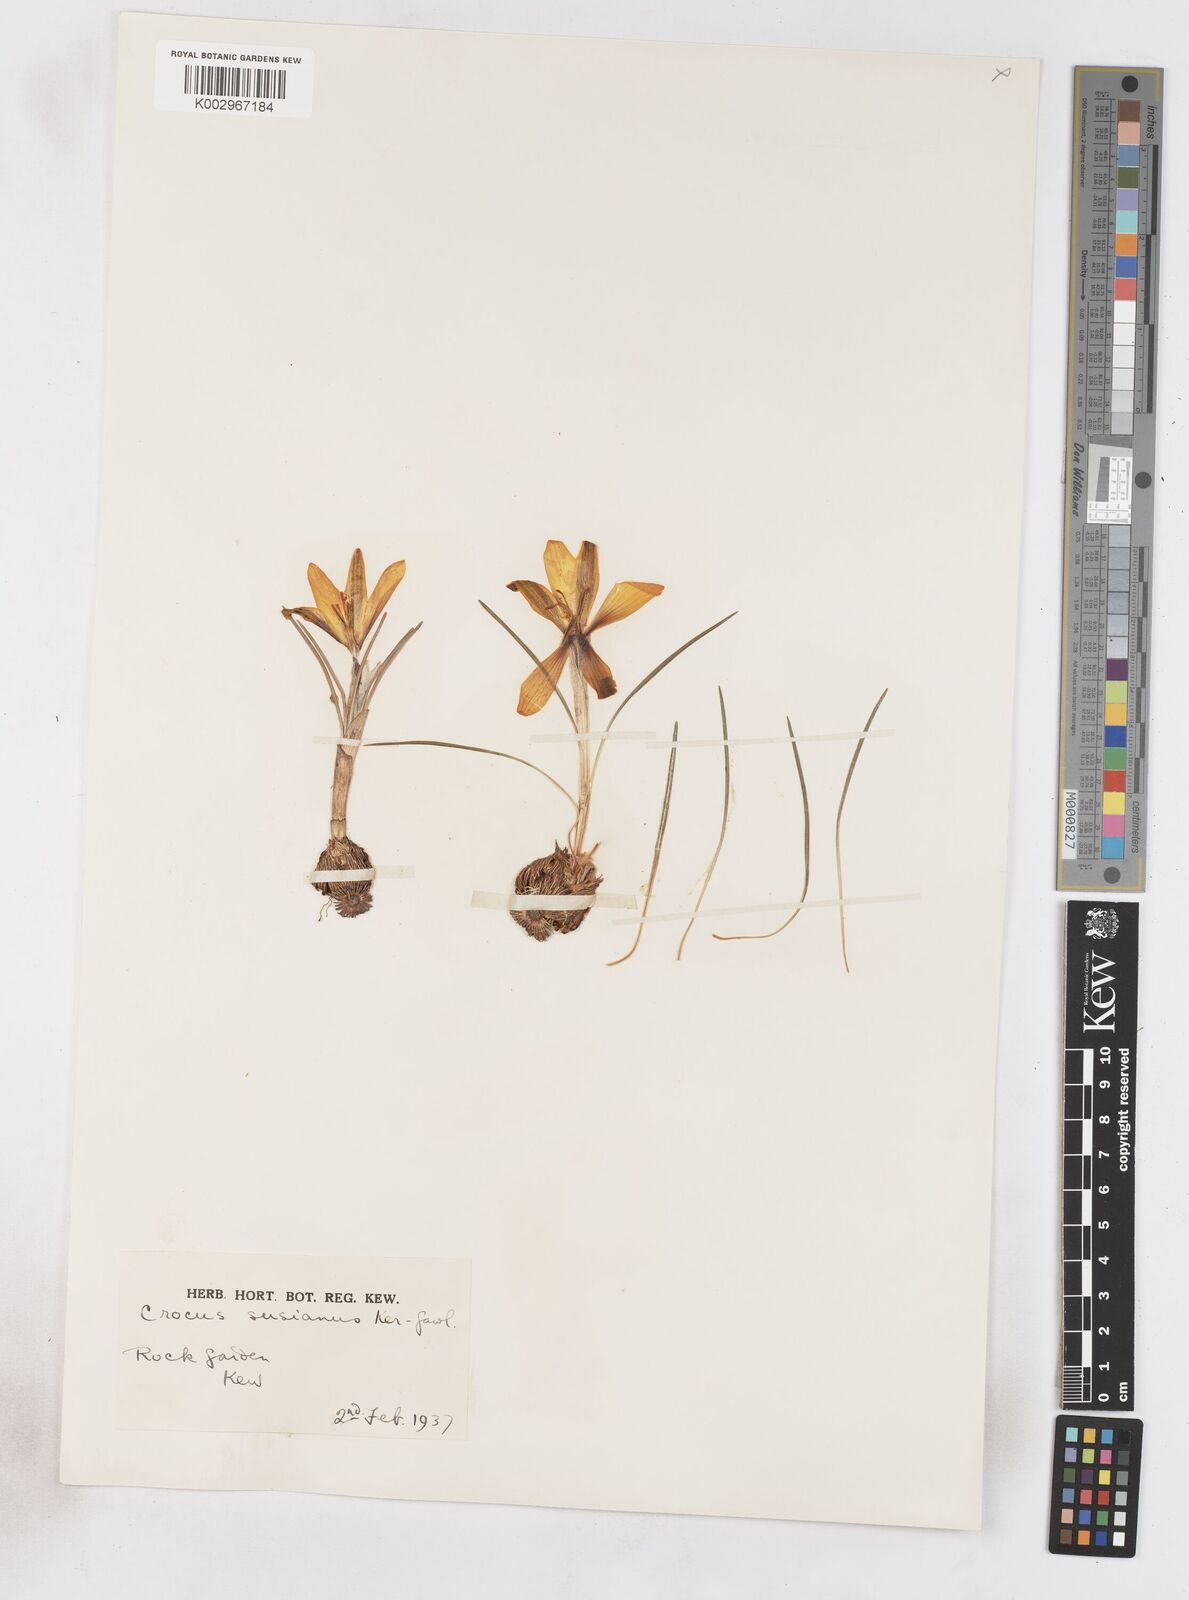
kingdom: Plantae
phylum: Tracheophyta
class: Liliopsida
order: Asparagales
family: Iridaceae
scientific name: Iridaceae
